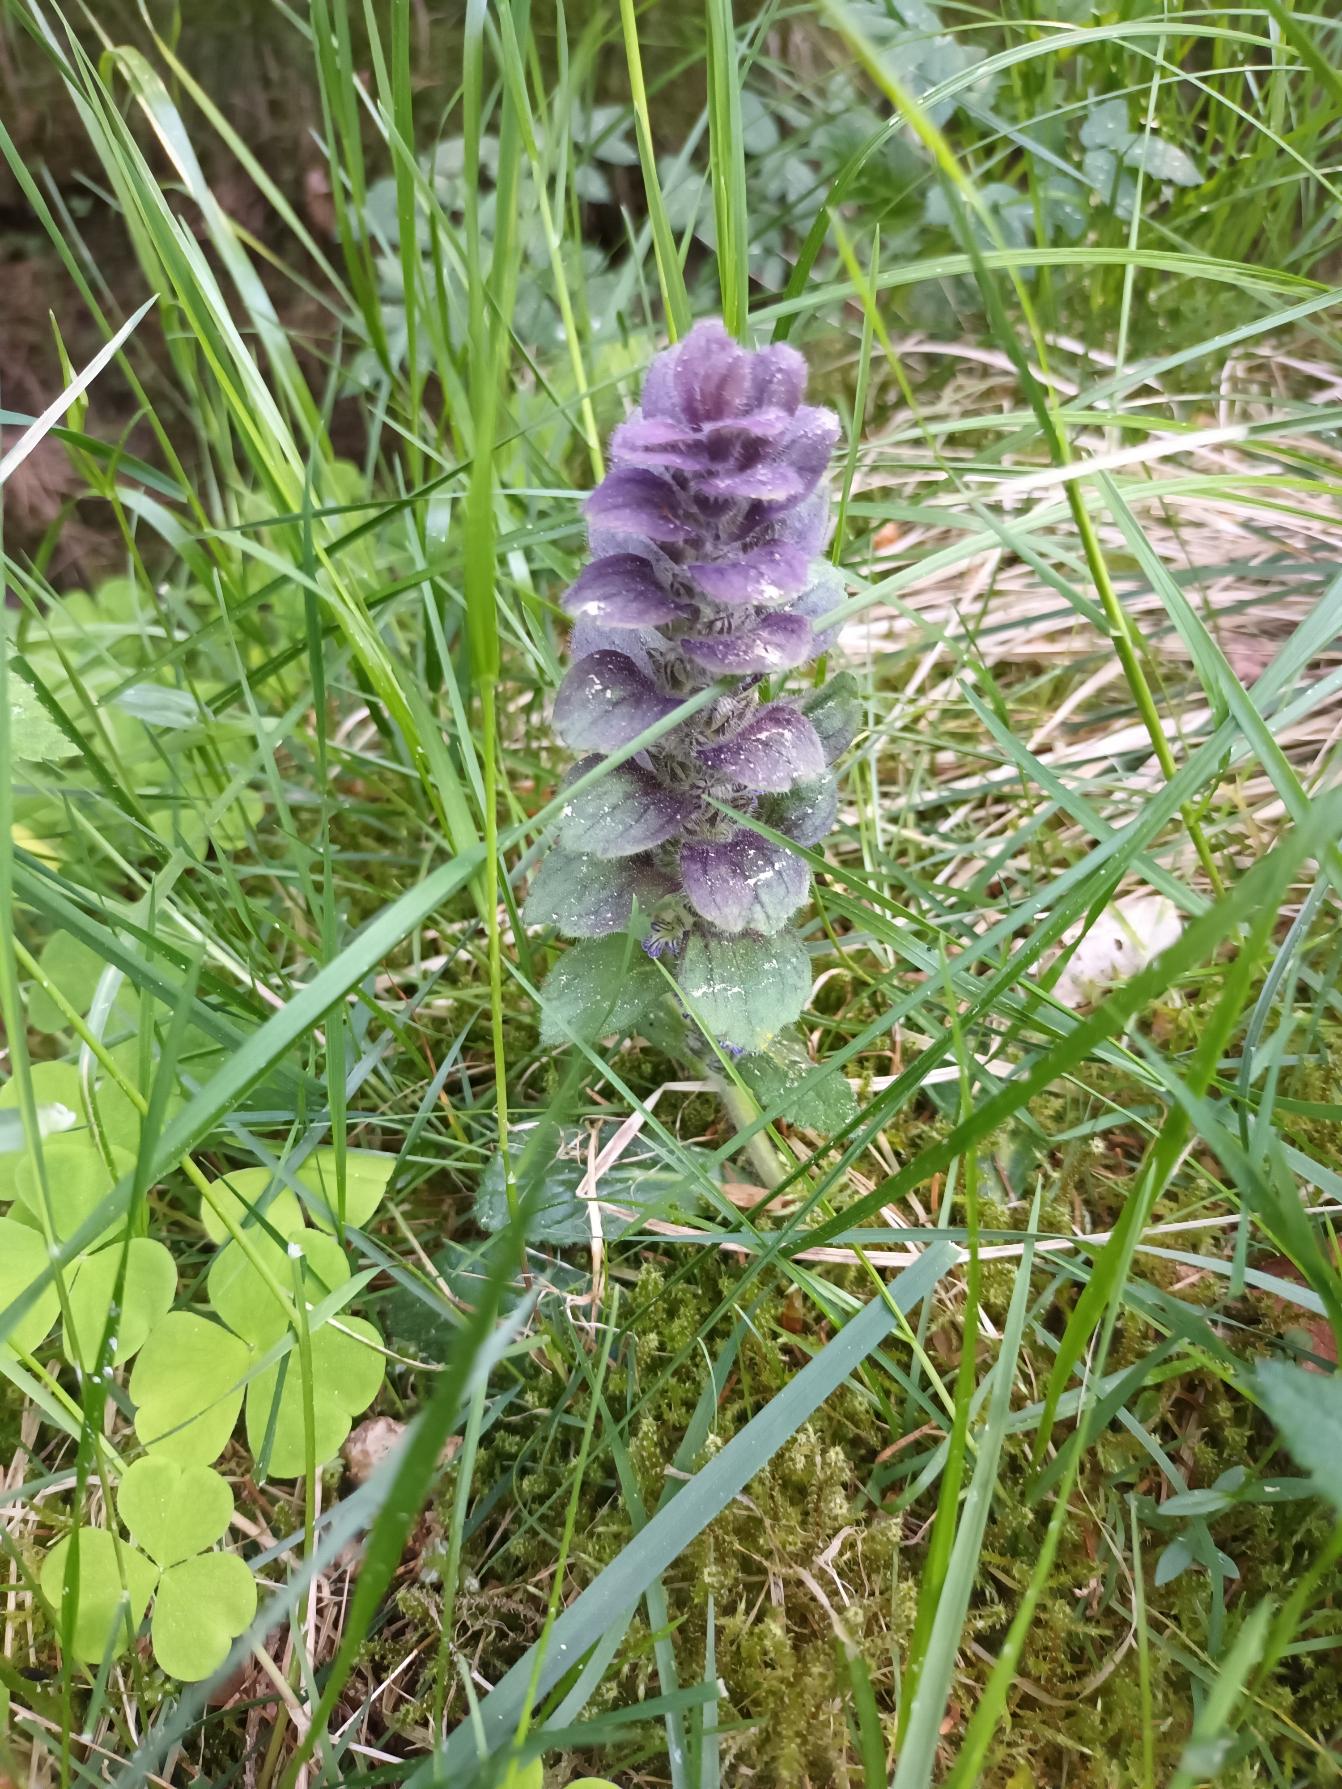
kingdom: Plantae
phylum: Tracheophyta
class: Magnoliopsida
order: Lamiales
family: Lamiaceae
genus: Ajuga
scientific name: Ajuga pyramidalis
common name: Pyramide-læbeløs
